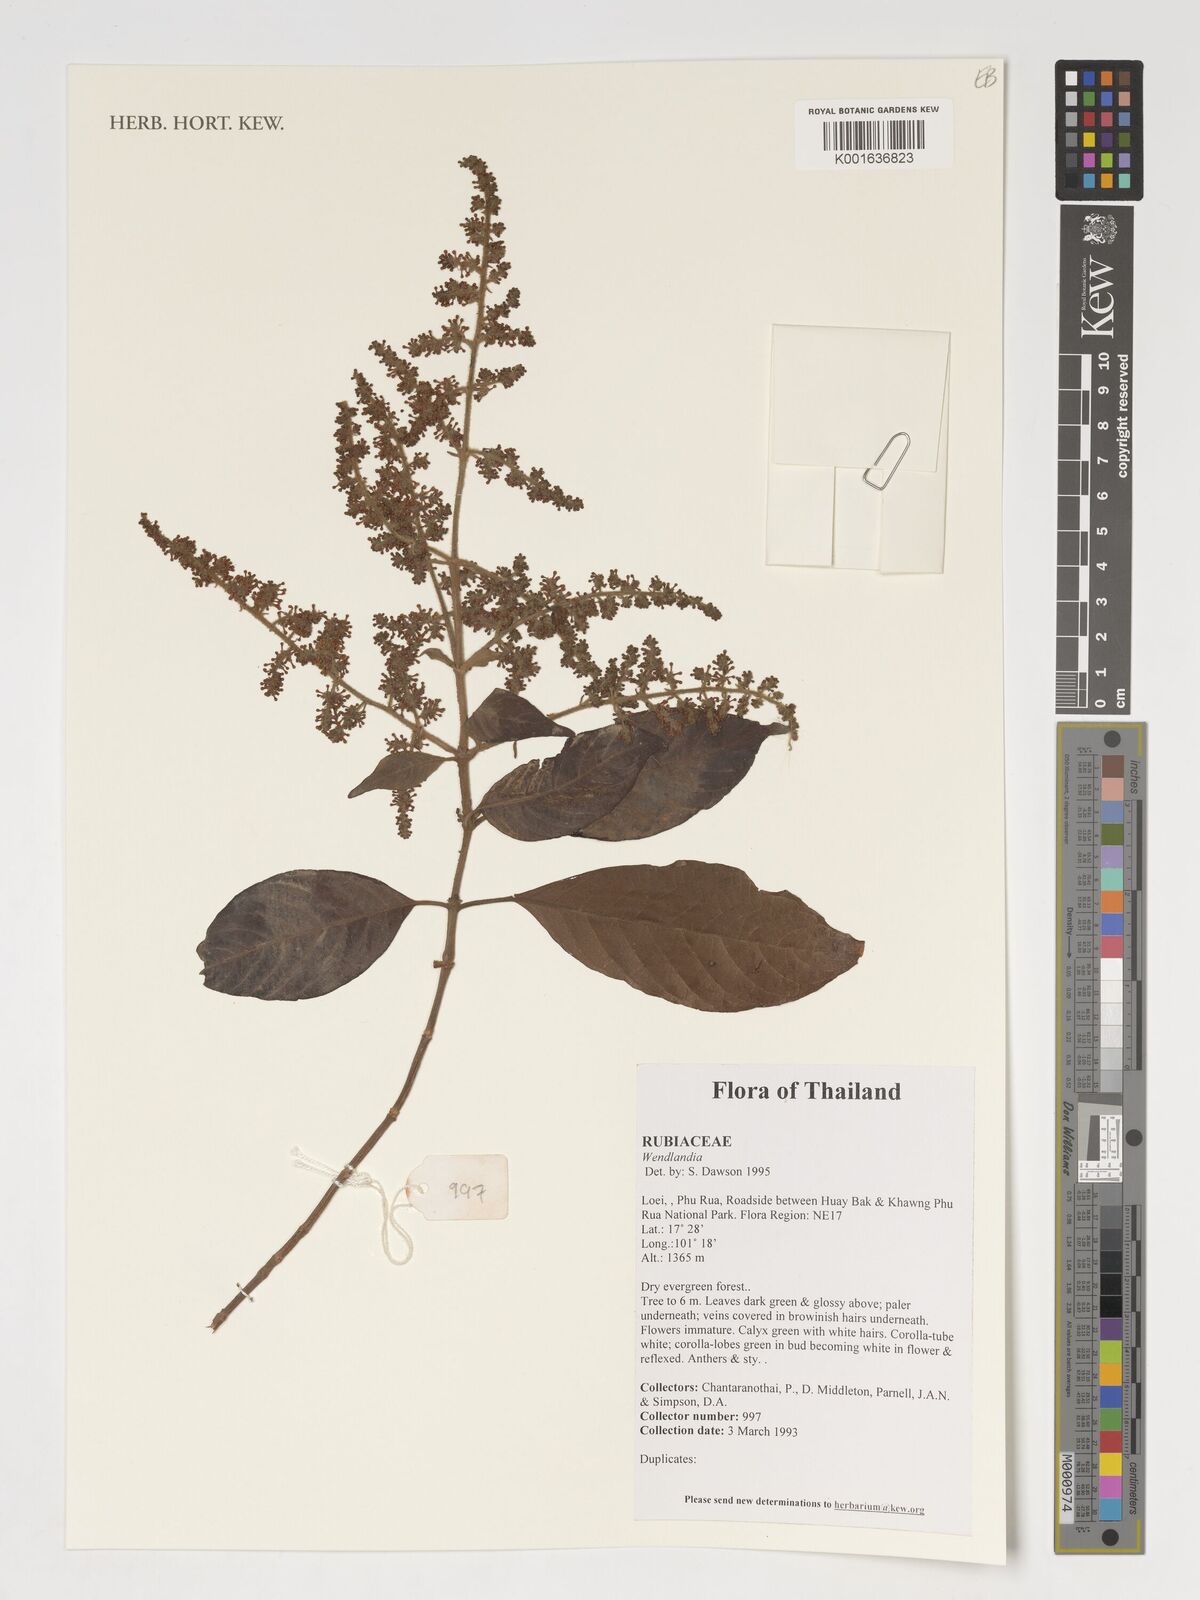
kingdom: Plantae
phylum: Tracheophyta
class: Magnoliopsida
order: Gentianales
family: Rubiaceae
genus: Wendlandia
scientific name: Wendlandia
